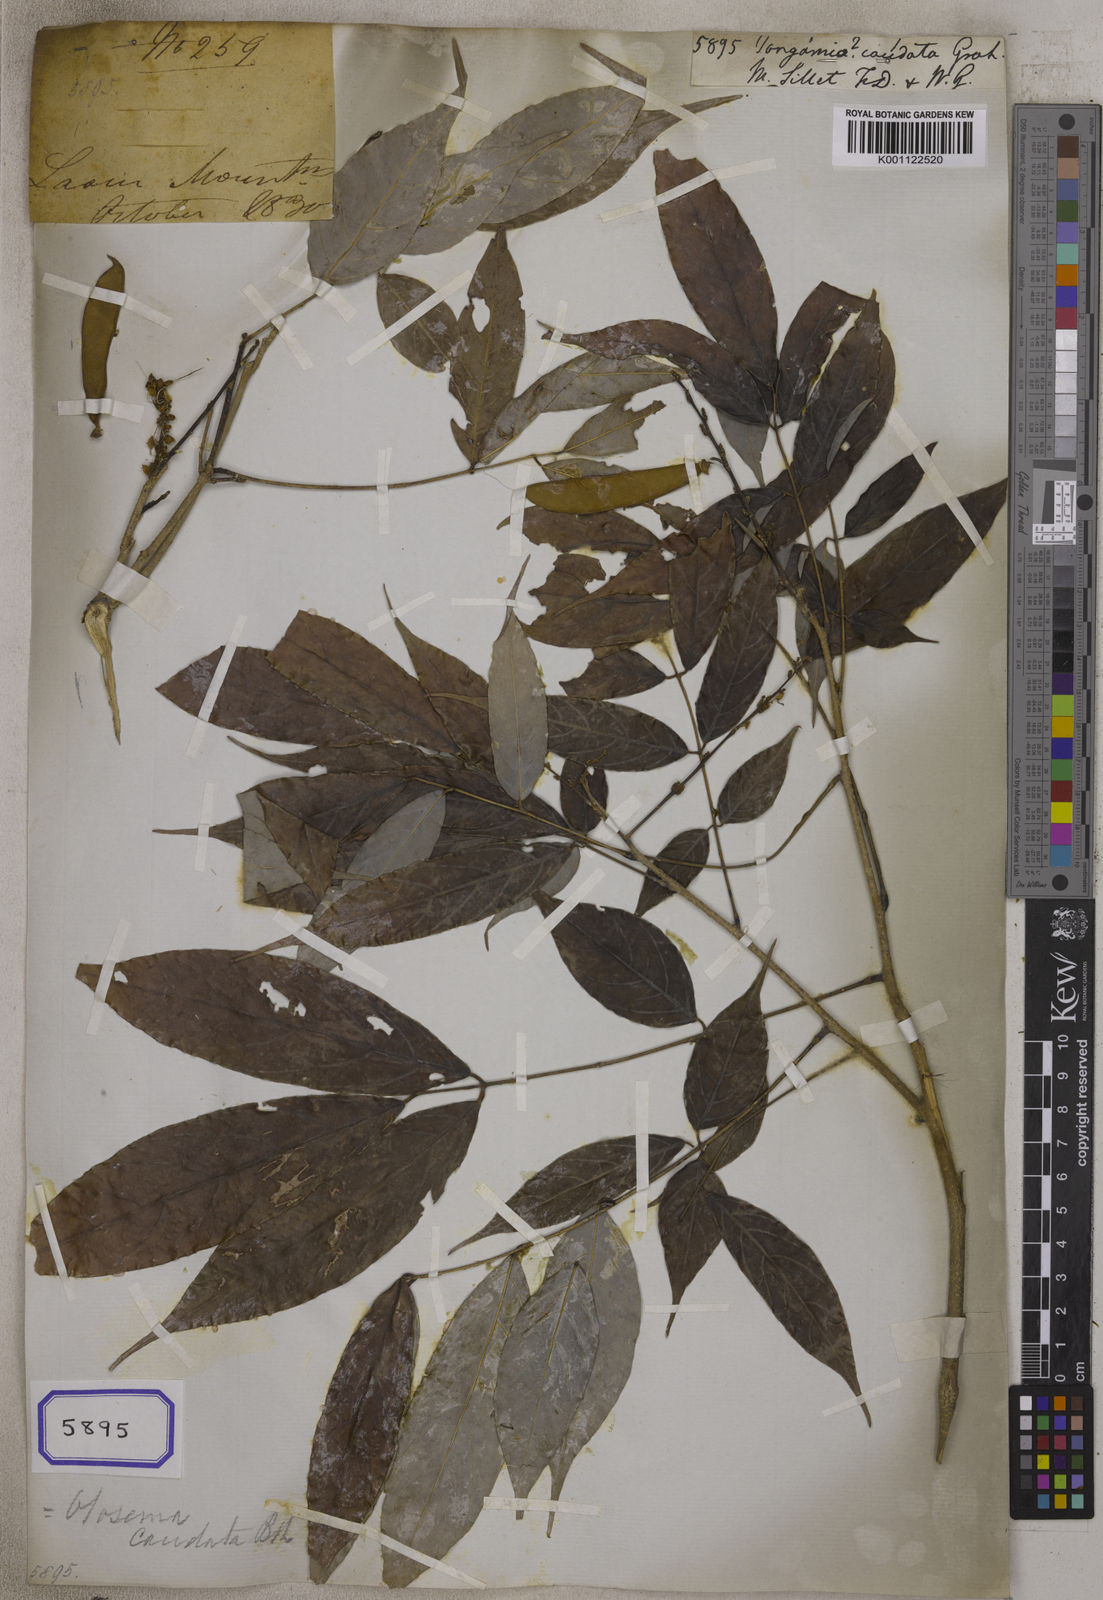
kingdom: Plantae
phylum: Tracheophyta
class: Magnoliopsida
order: Fabales
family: Fabaceae
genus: Millettia
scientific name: Millettia caudata
